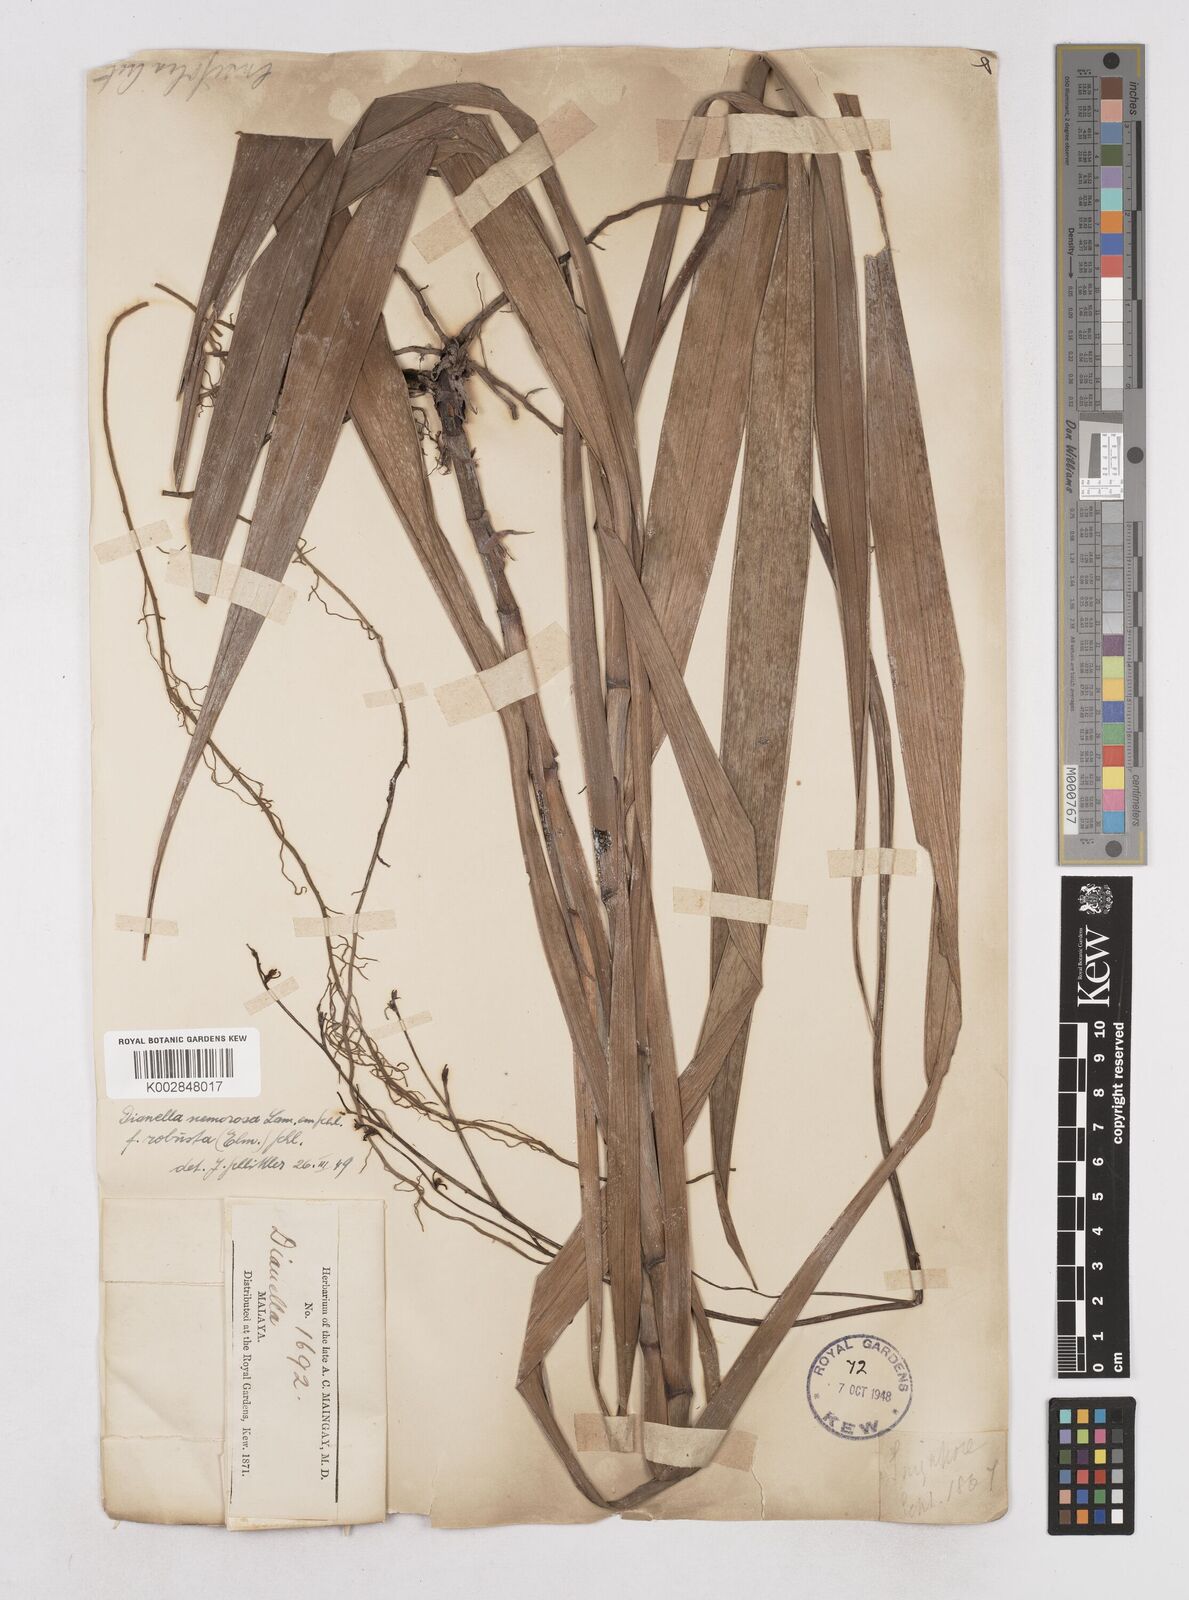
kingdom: Plantae
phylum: Tracheophyta
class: Liliopsida
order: Asparagales
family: Asphodelaceae
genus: Dianella
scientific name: Dianella ensifolia
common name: New zealand lilyplant
